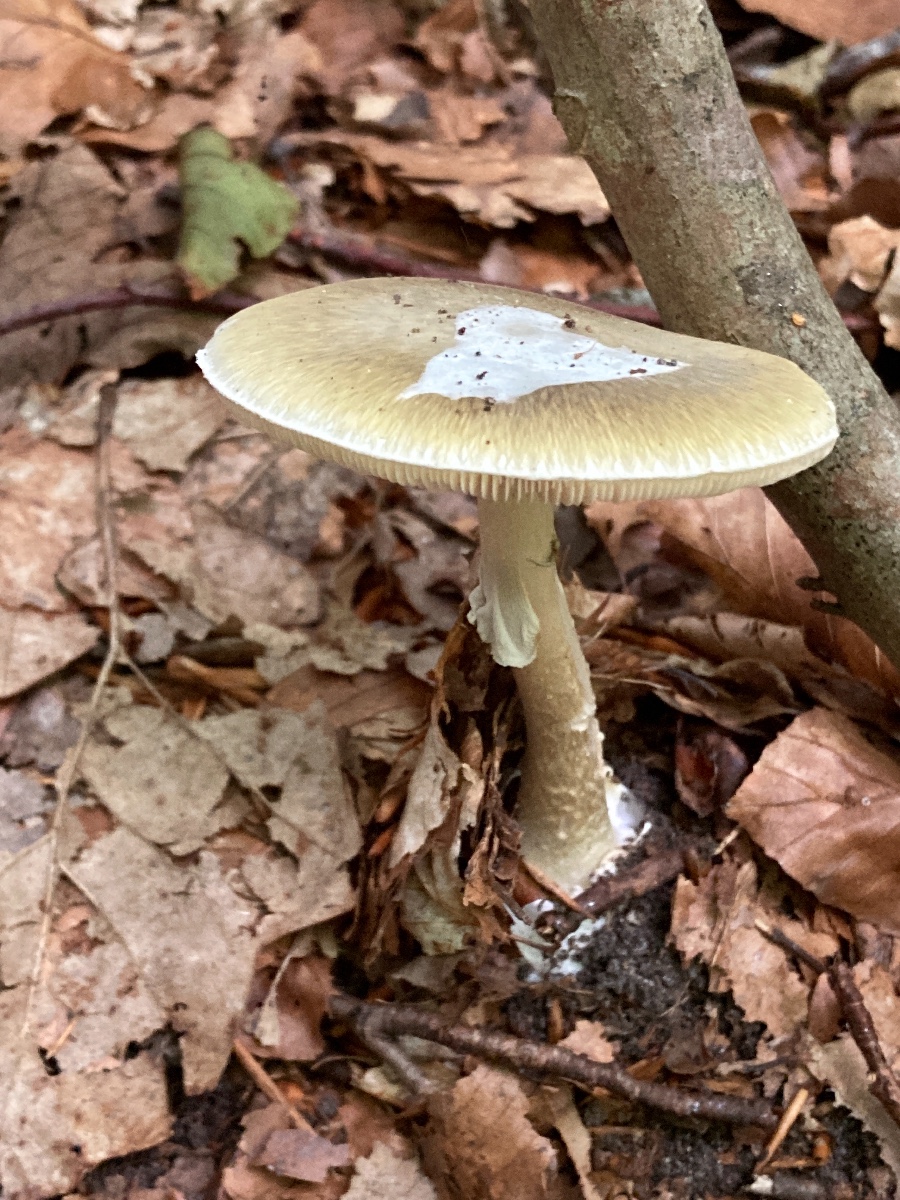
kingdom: Fungi
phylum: Basidiomycota
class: Agaricomycetes
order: Agaricales
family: Amanitaceae
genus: Amanita
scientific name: Amanita phalloides
